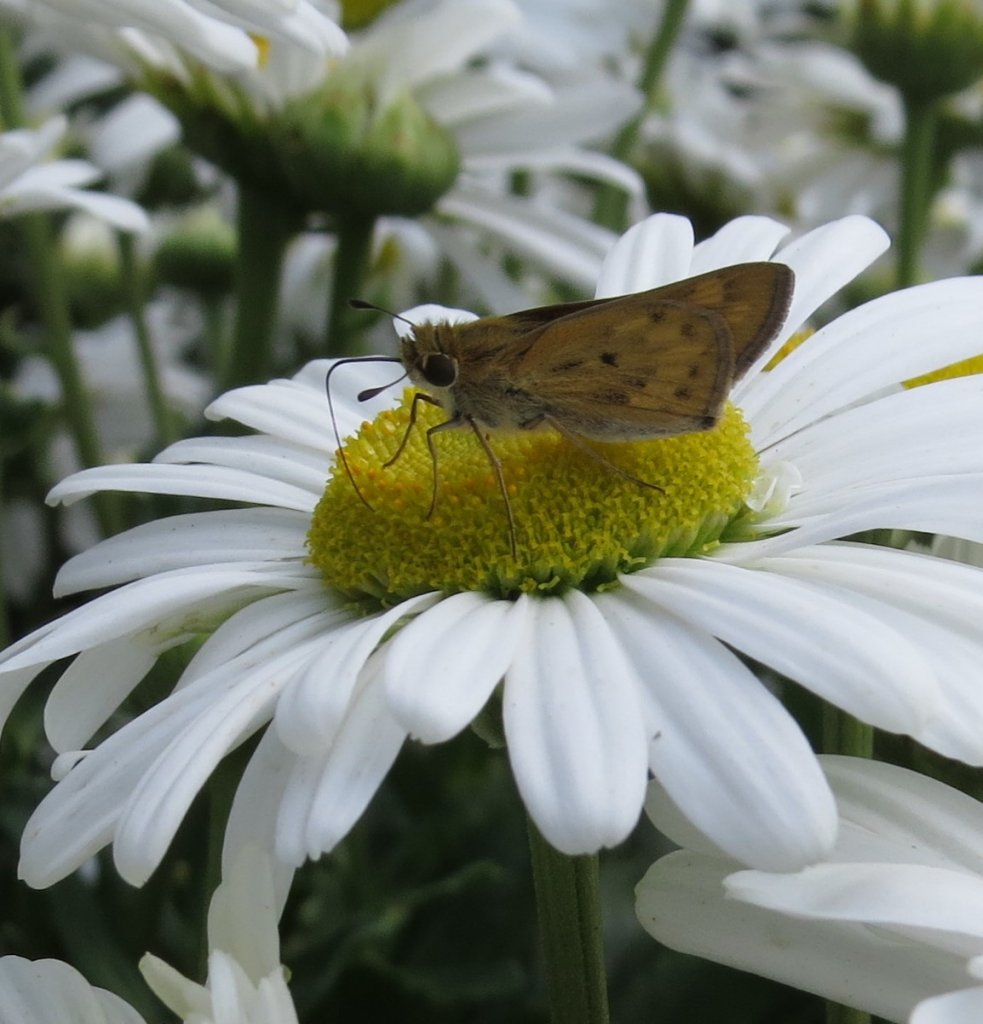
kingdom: Animalia
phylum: Arthropoda
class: Insecta
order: Lepidoptera
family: Hesperiidae
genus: Hylephila
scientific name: Hylephila phyleus
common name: Fiery Skipper
